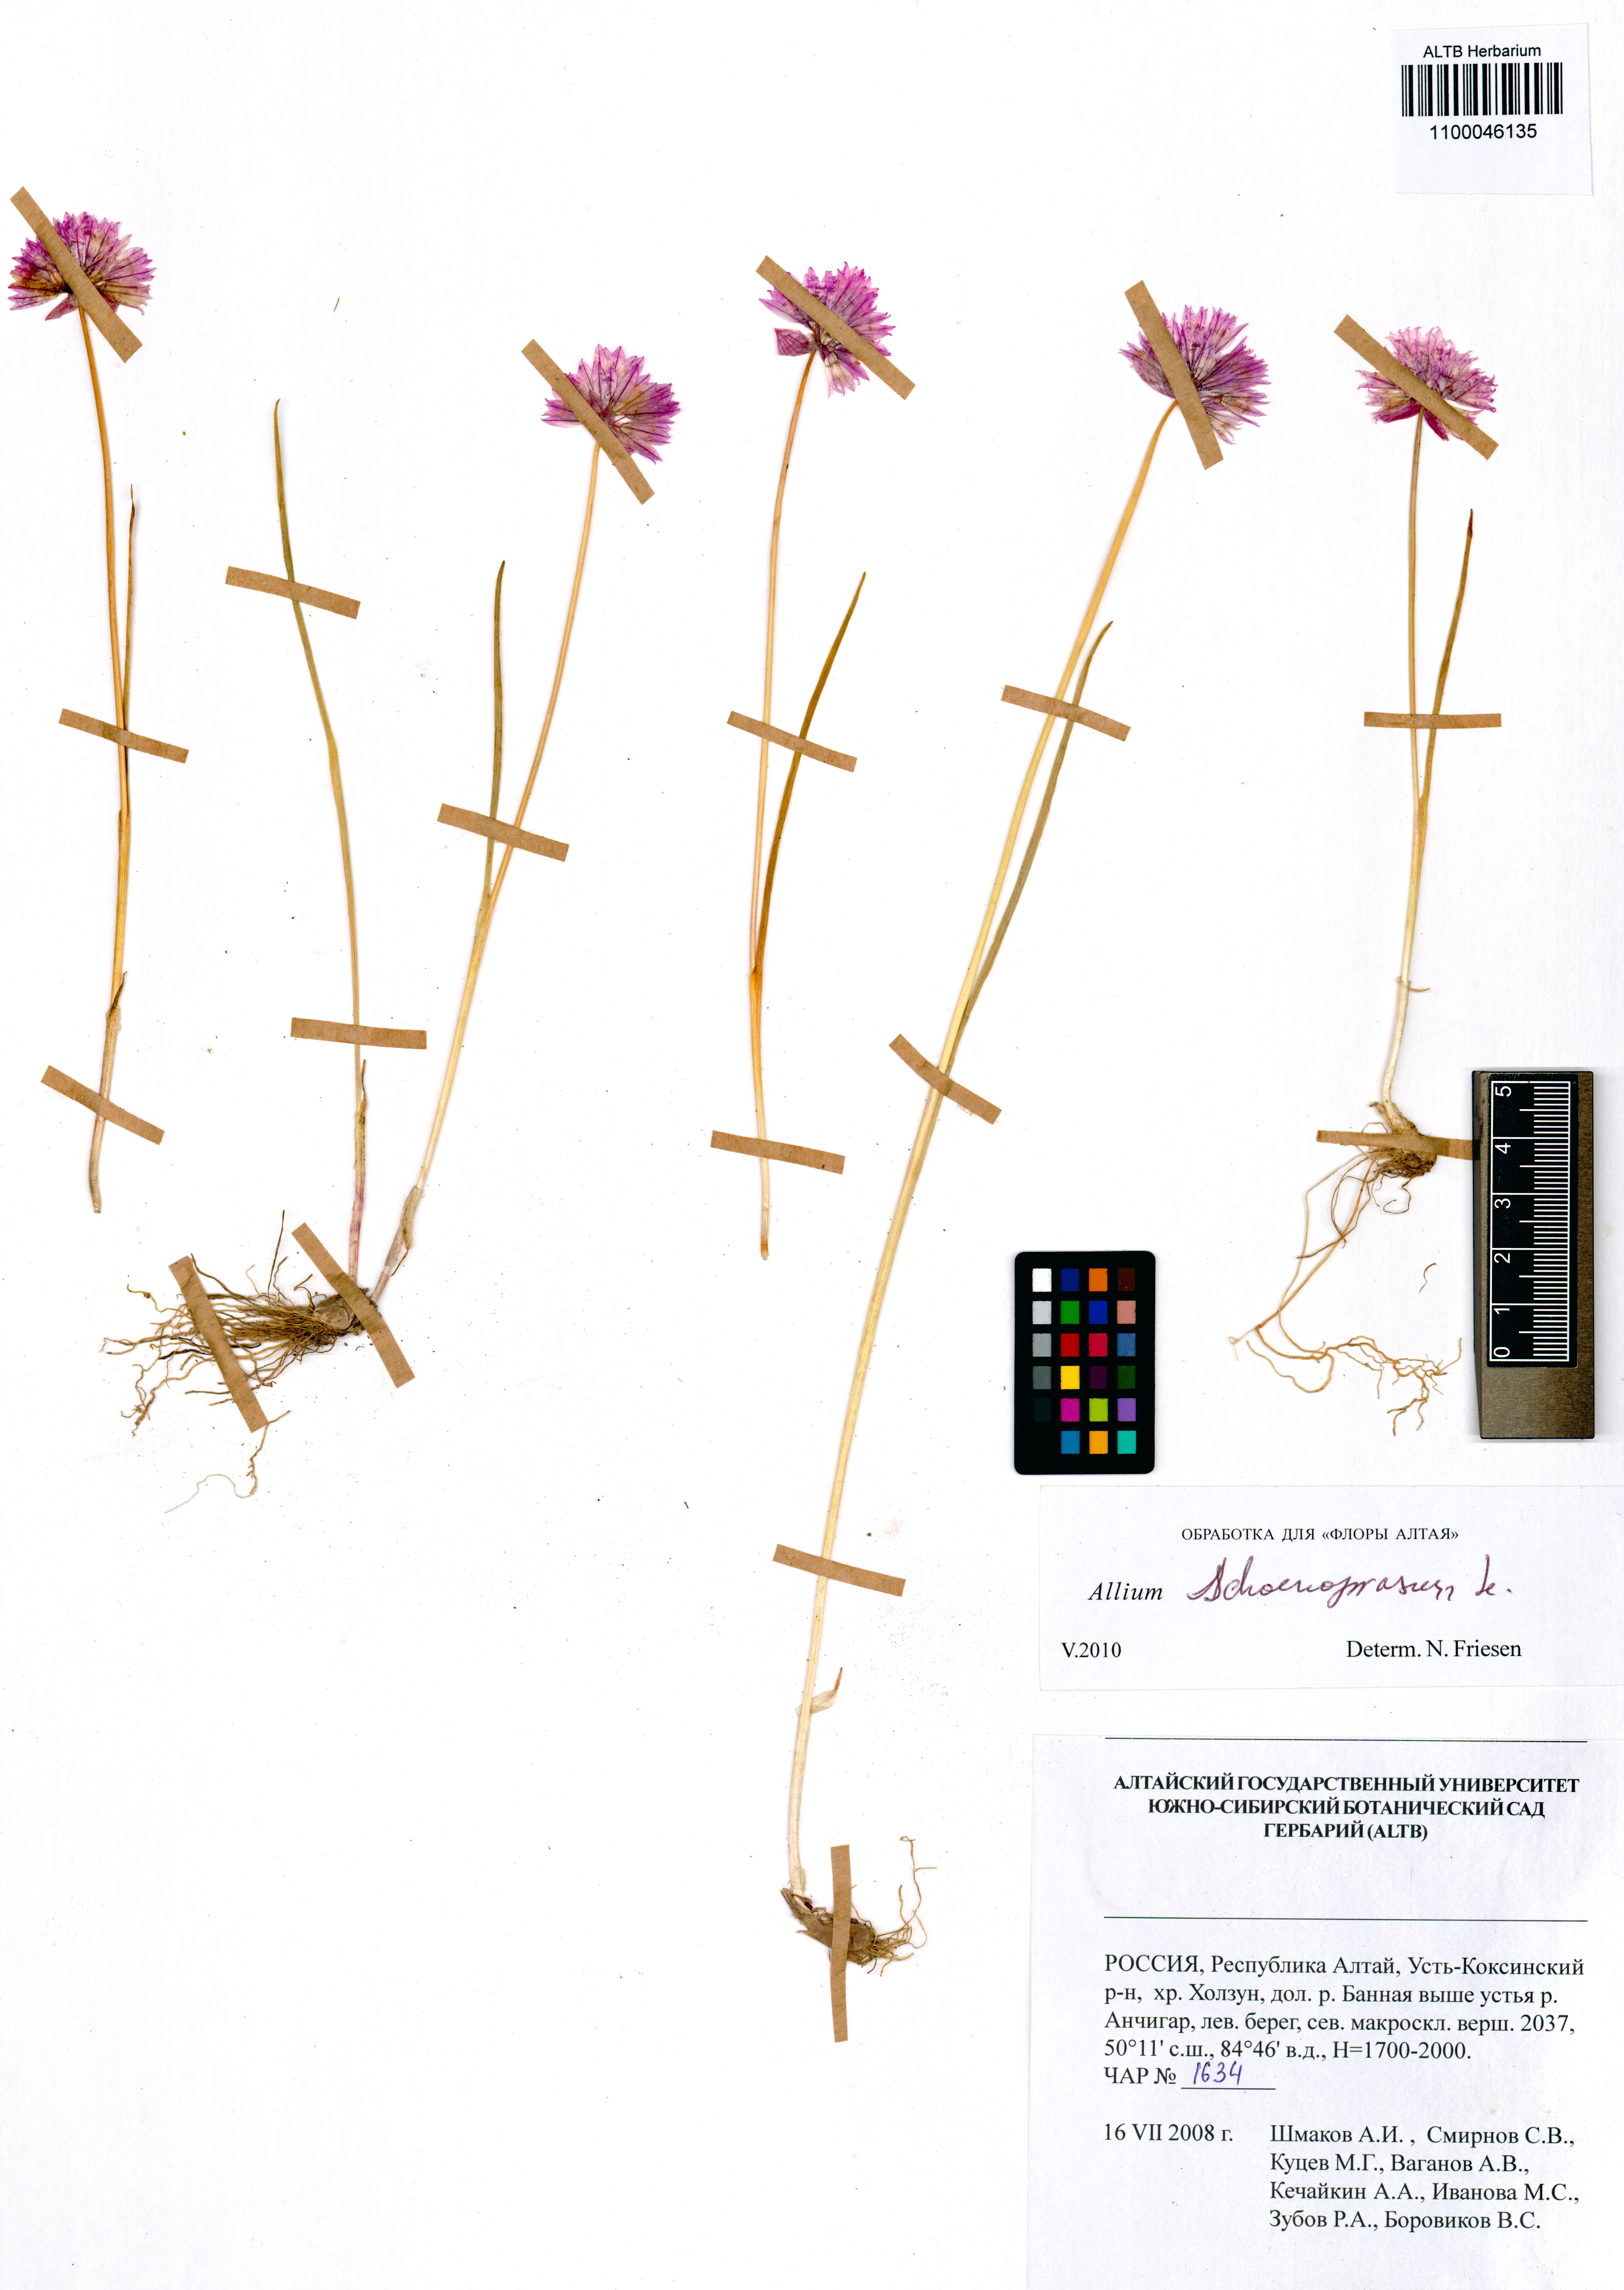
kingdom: Plantae
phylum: Tracheophyta
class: Liliopsida
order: Asparagales
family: Amaryllidaceae
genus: Allium
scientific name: Allium schoenoprasum
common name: Chives
